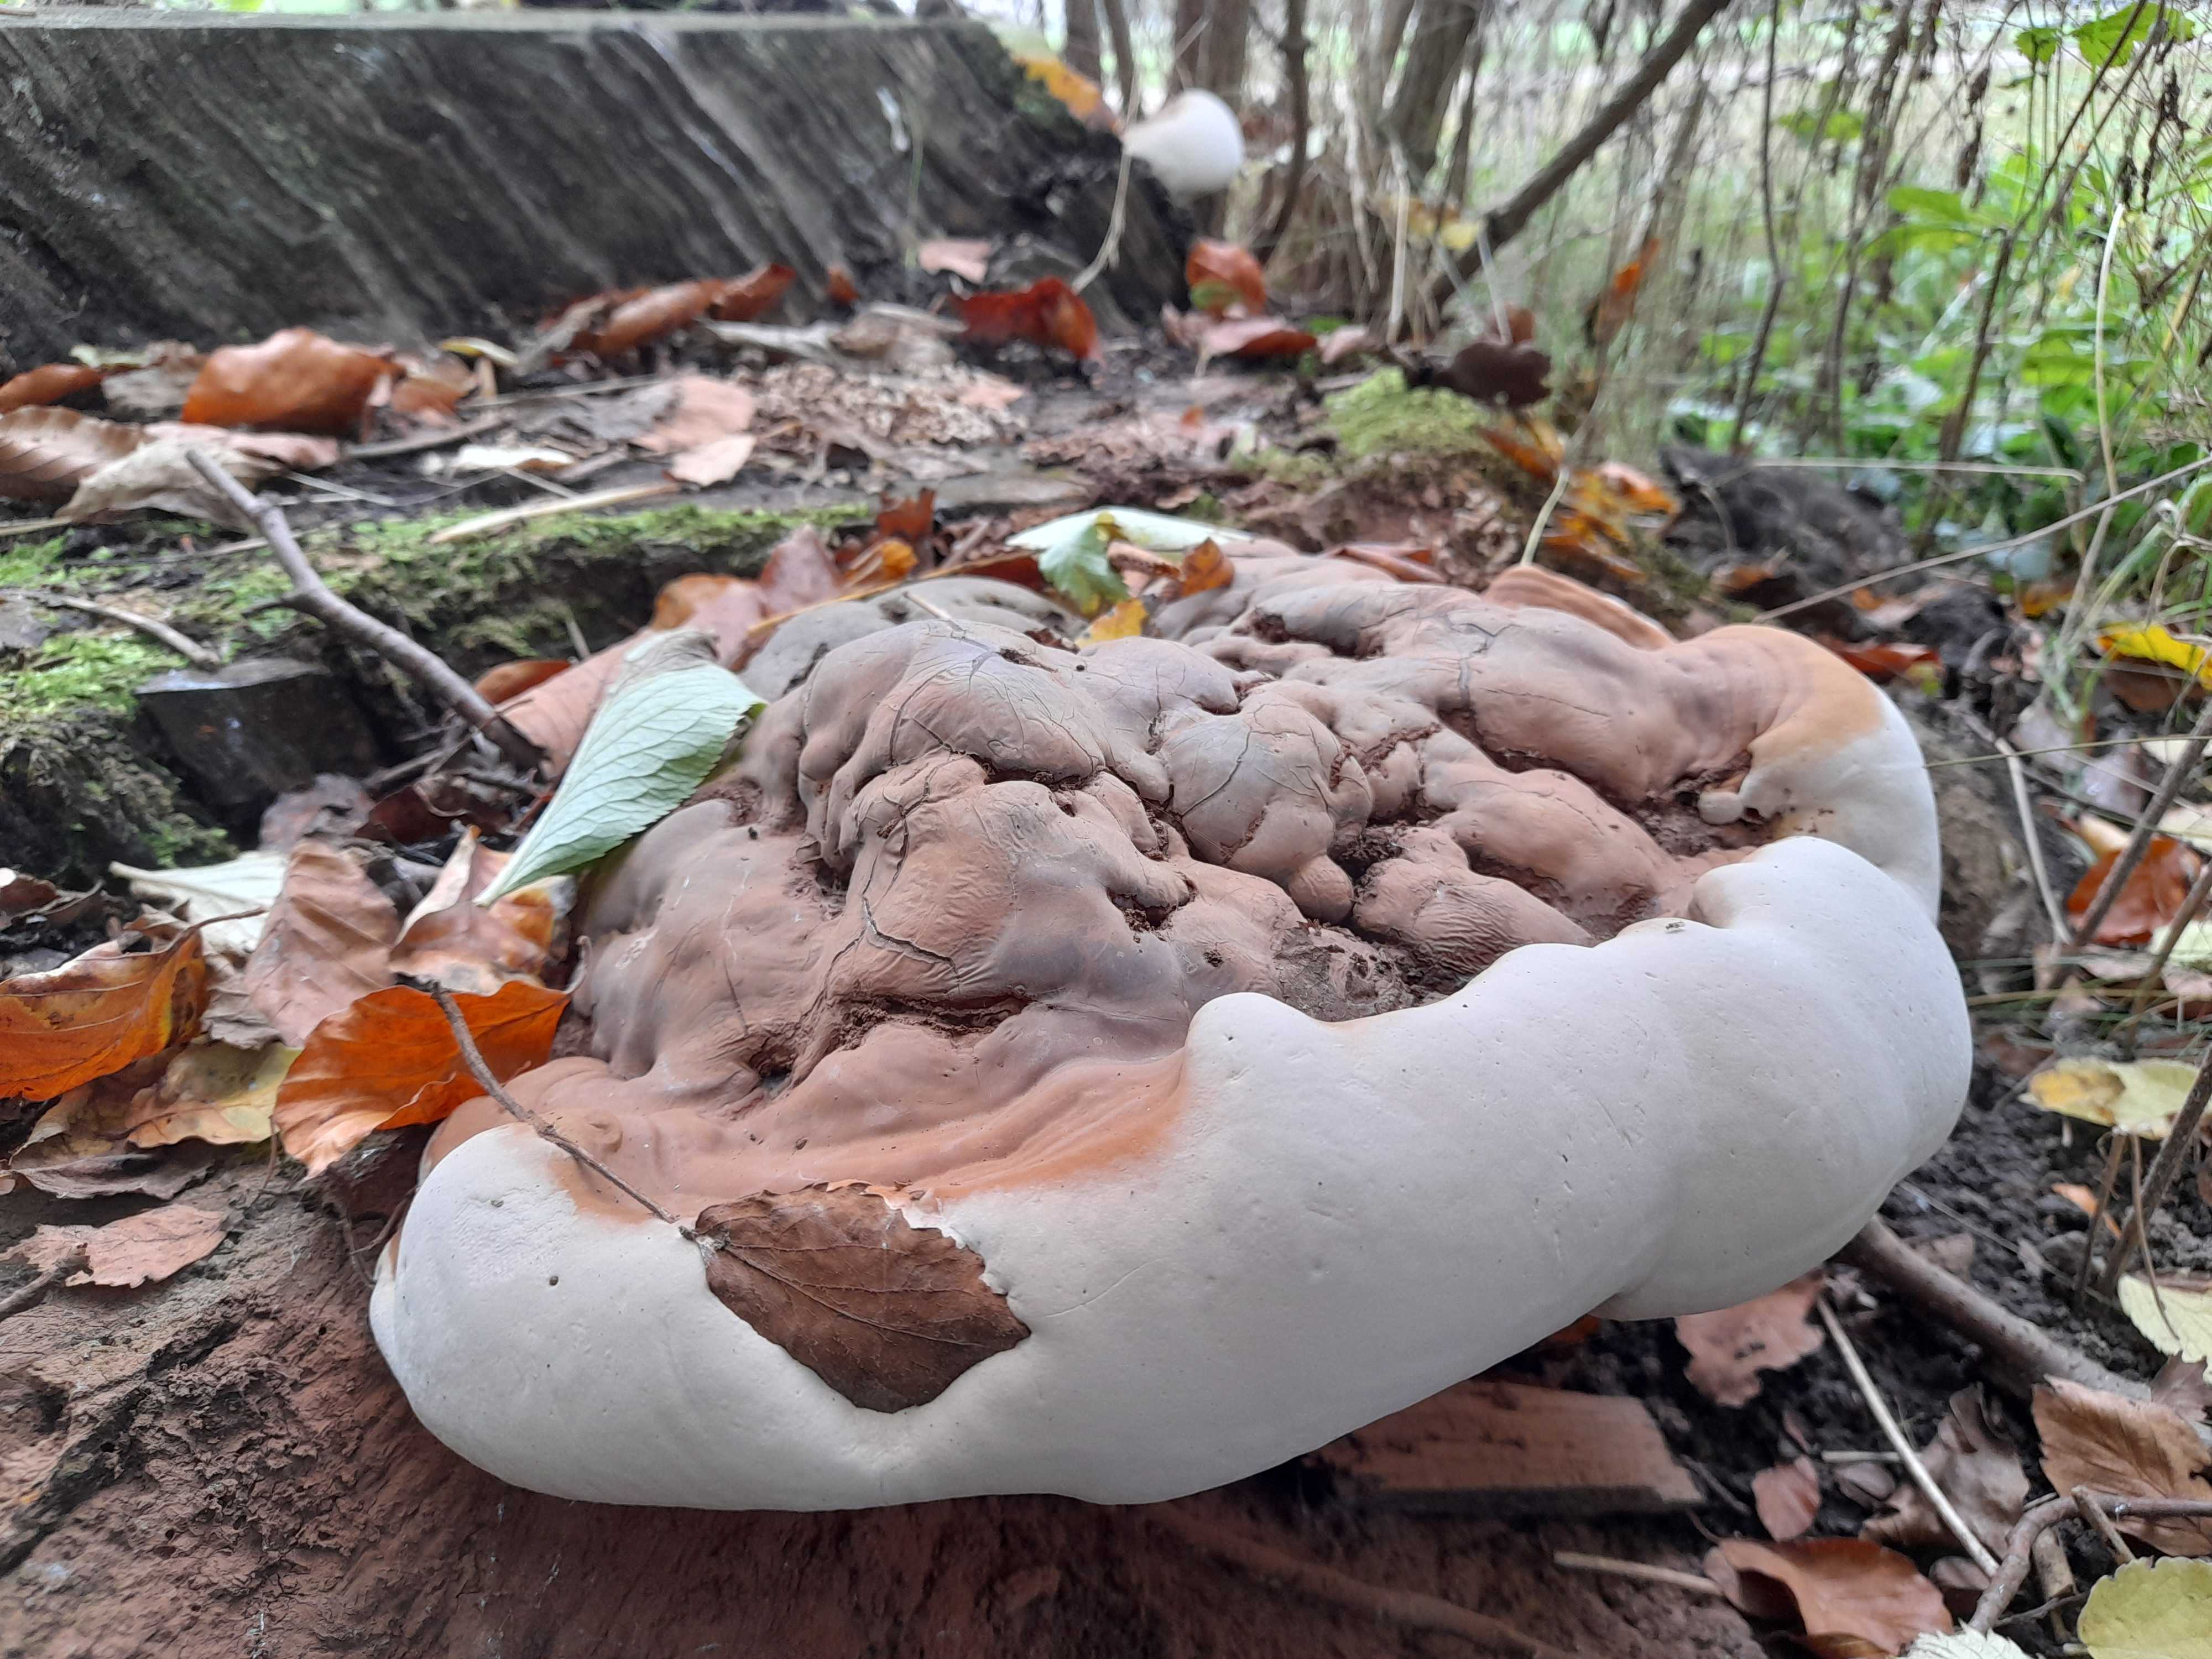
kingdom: Fungi
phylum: Basidiomycota
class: Agaricomycetes
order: Polyporales
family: Polyporaceae
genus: Ganoderma
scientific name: Ganoderma applanatum
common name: flad lakporesvamp
